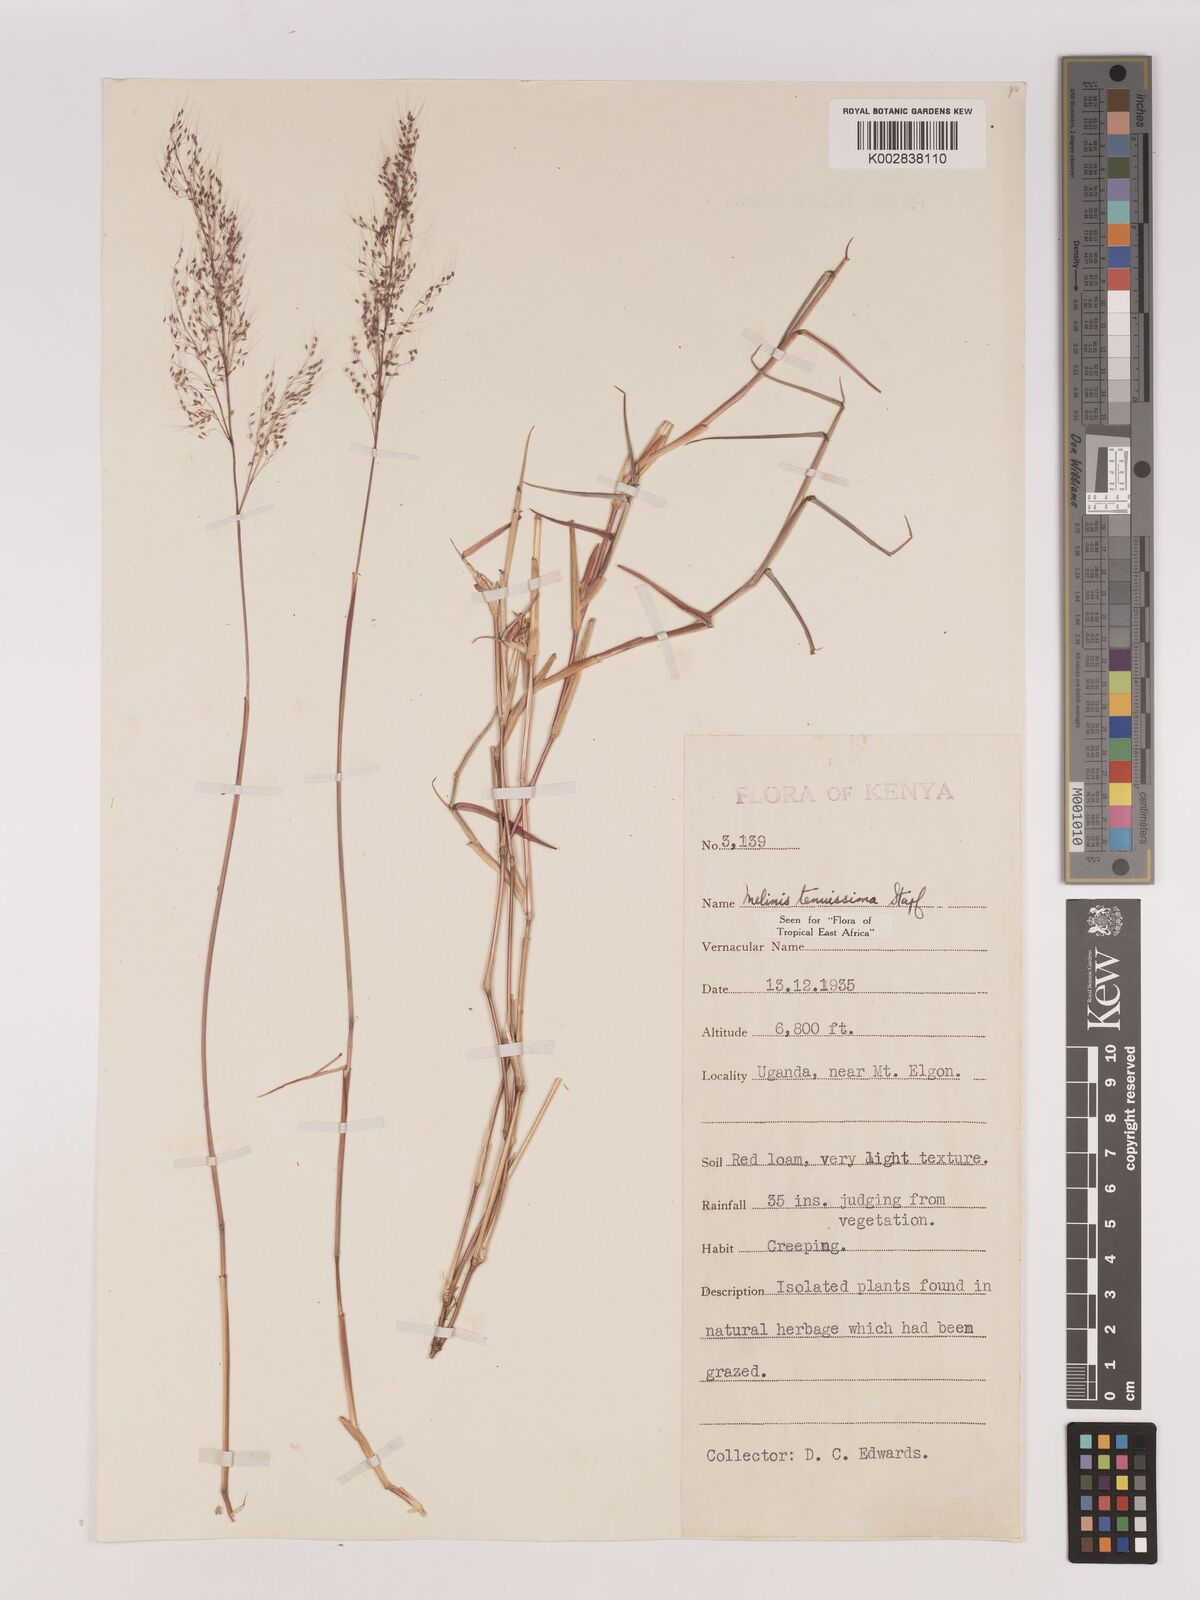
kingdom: Plantae
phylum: Tracheophyta
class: Liliopsida
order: Poales
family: Poaceae
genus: Melinis
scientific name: Melinis tenuissima
